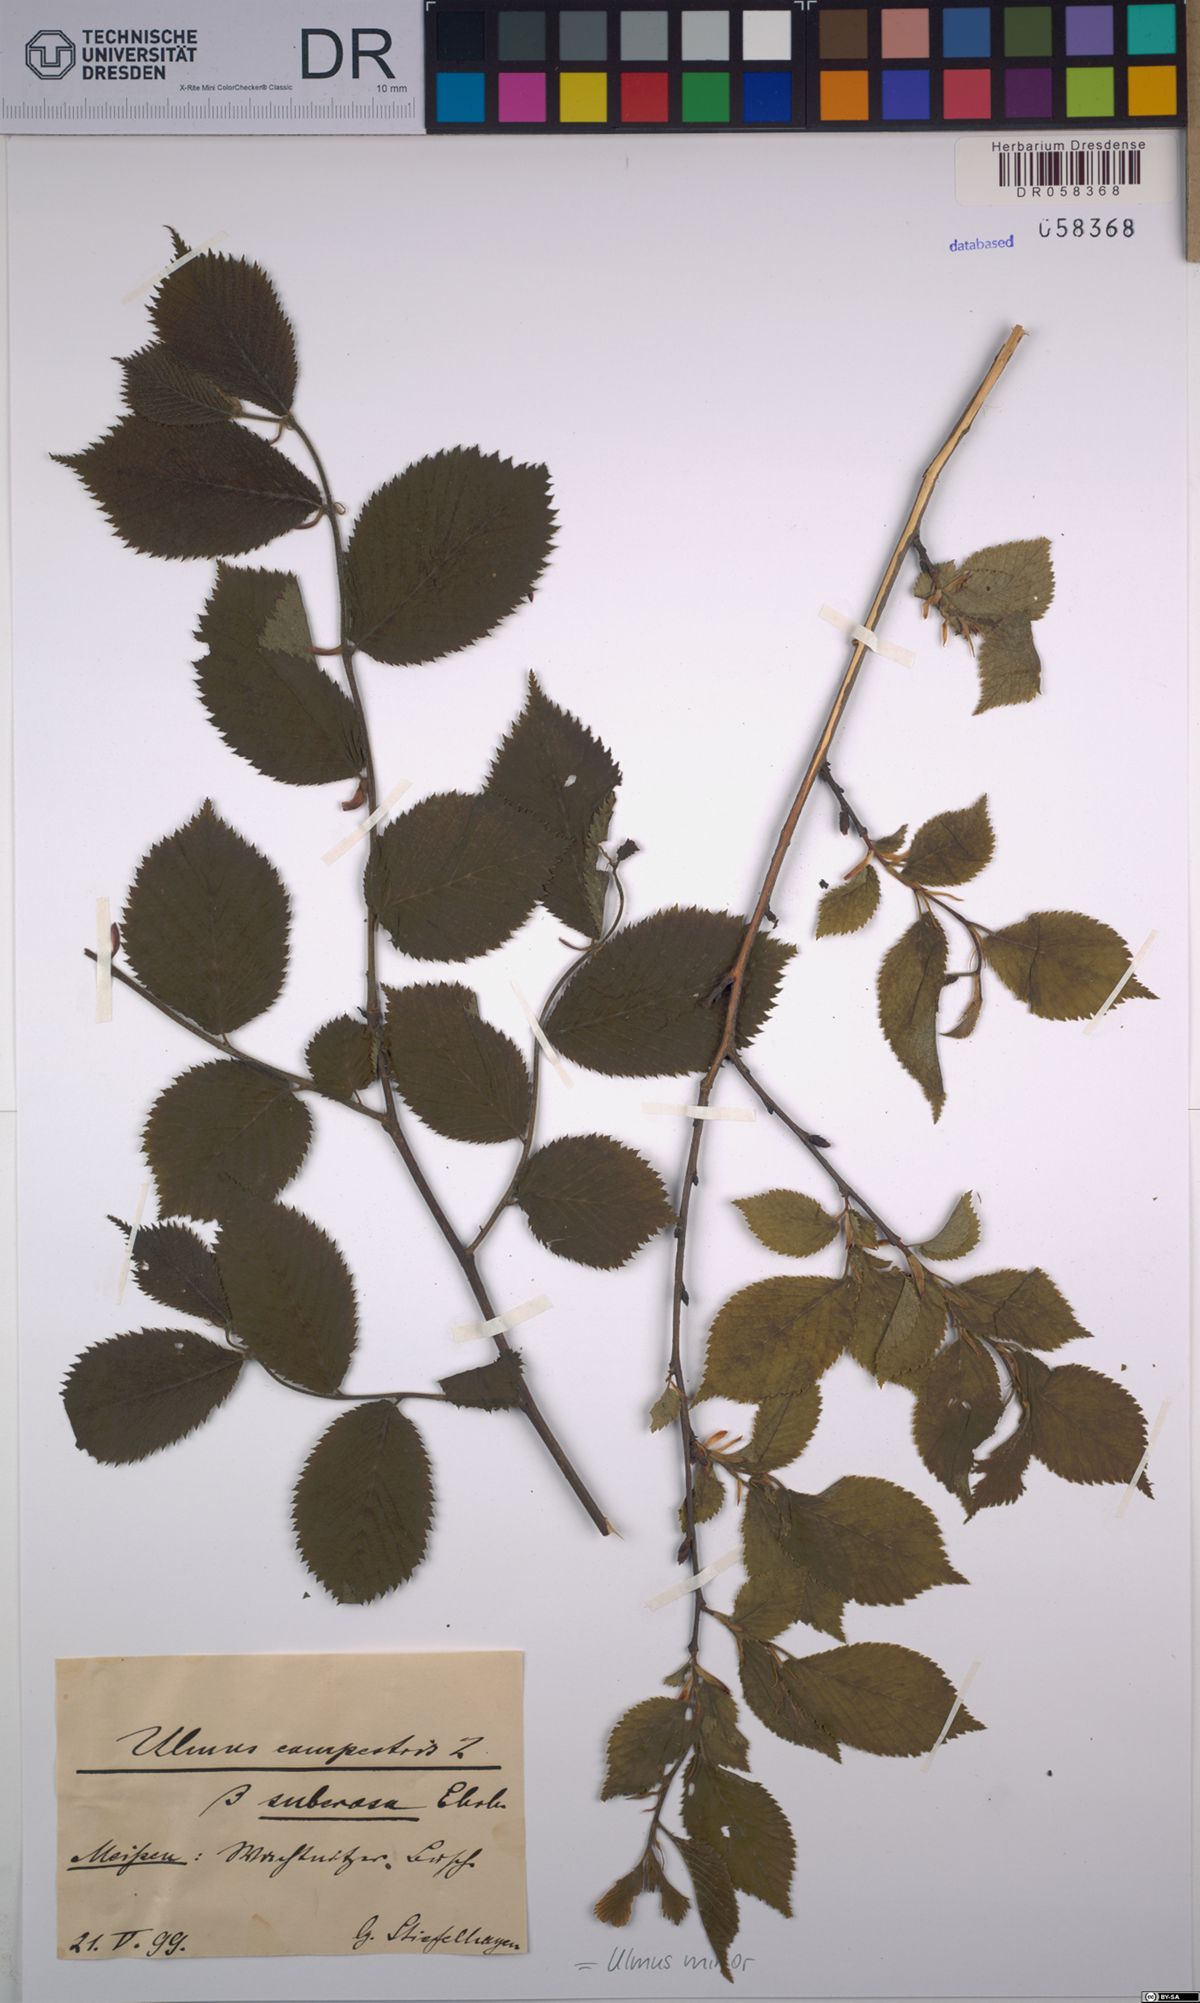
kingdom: Plantae
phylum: Tracheophyta
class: Magnoliopsida
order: Rosales
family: Ulmaceae
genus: Ulmus
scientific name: Ulmus minor
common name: Small-leaved elm
